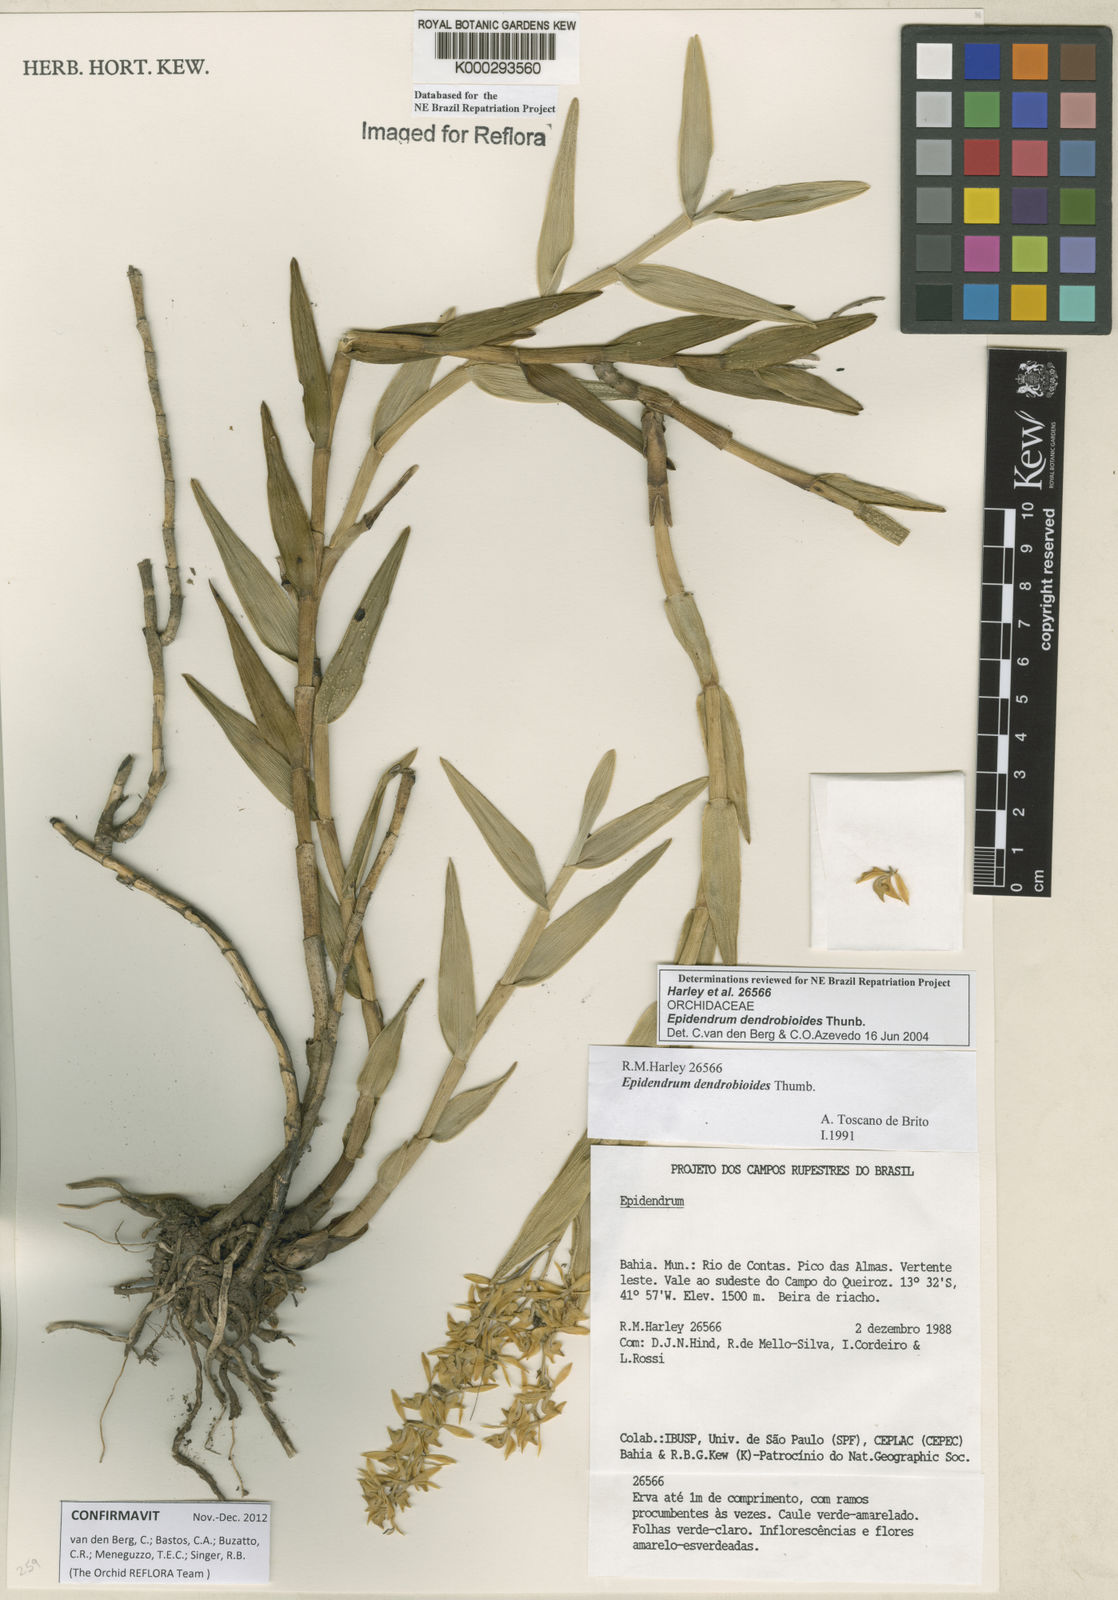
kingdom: Plantae
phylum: Tracheophyta
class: Liliopsida
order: Asparagales
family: Orchidaceae
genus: Epidendrum
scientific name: Epidendrum dendrobioides
